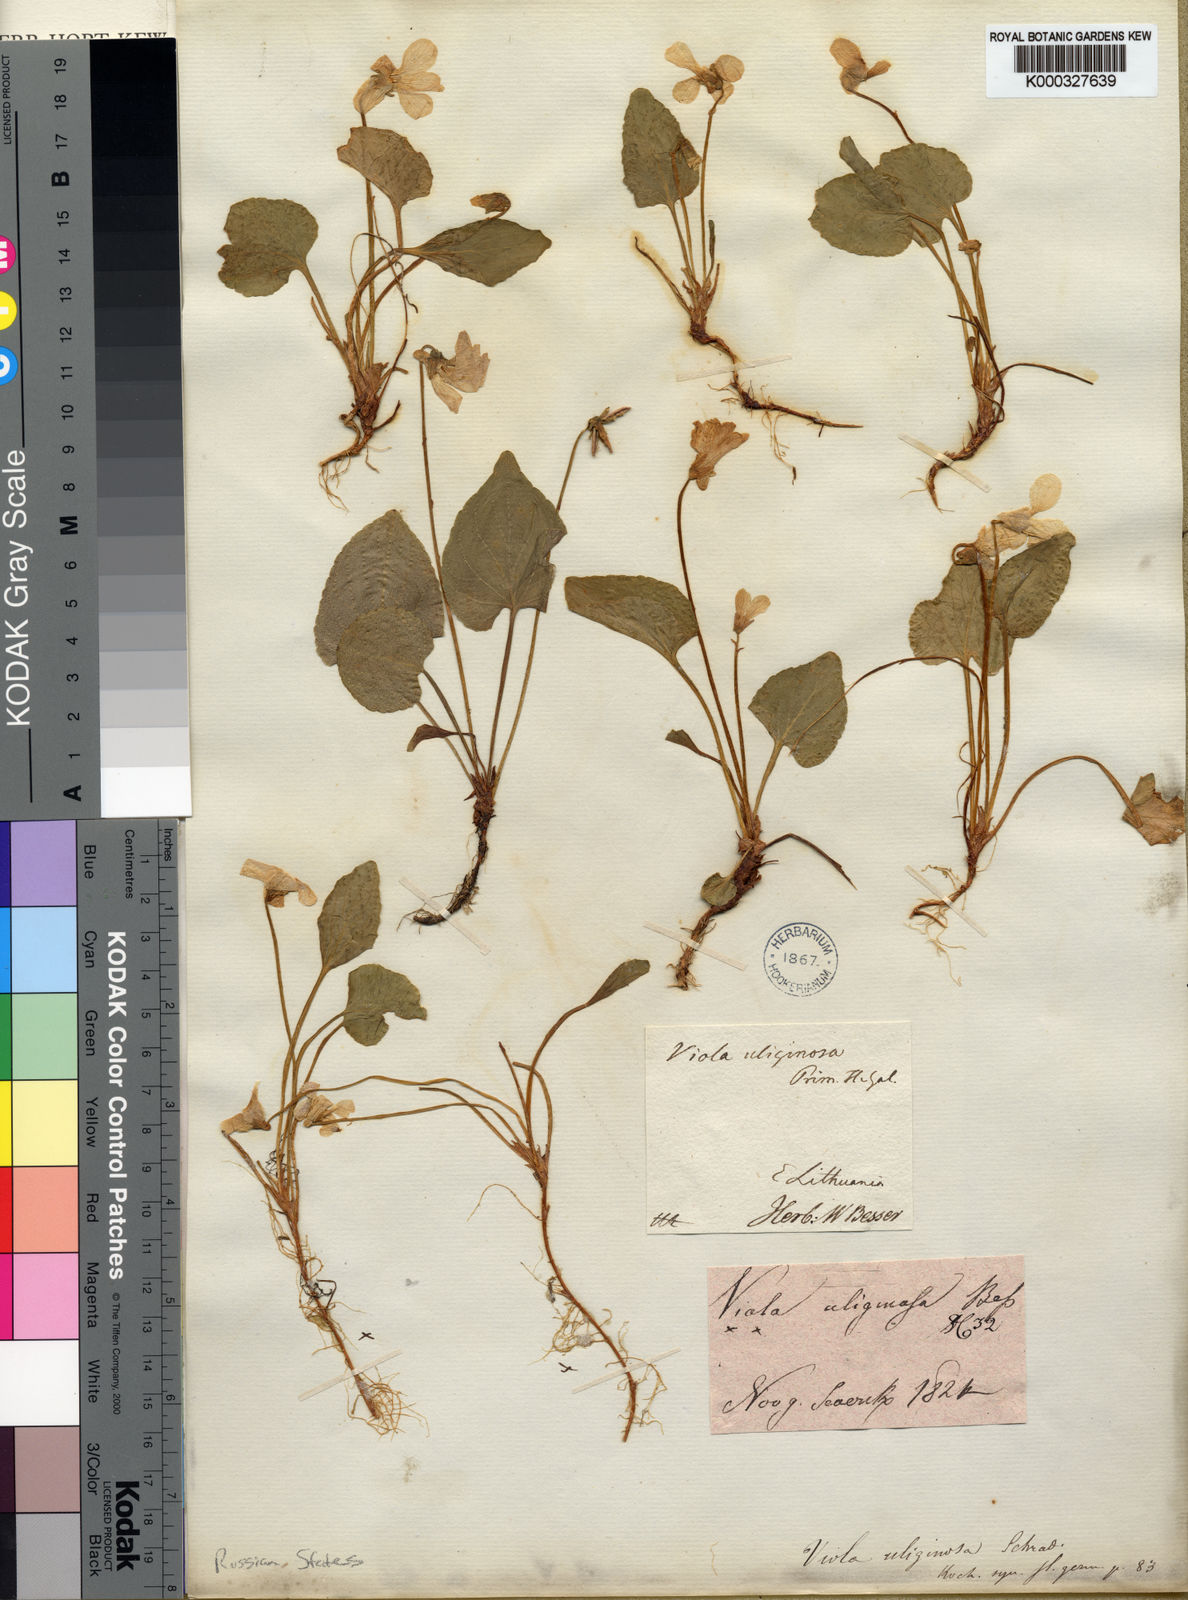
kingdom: Plantae
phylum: Tracheophyta
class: Magnoliopsida
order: Malpighiales
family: Violaceae
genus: Viola
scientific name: Viola uliginosa
